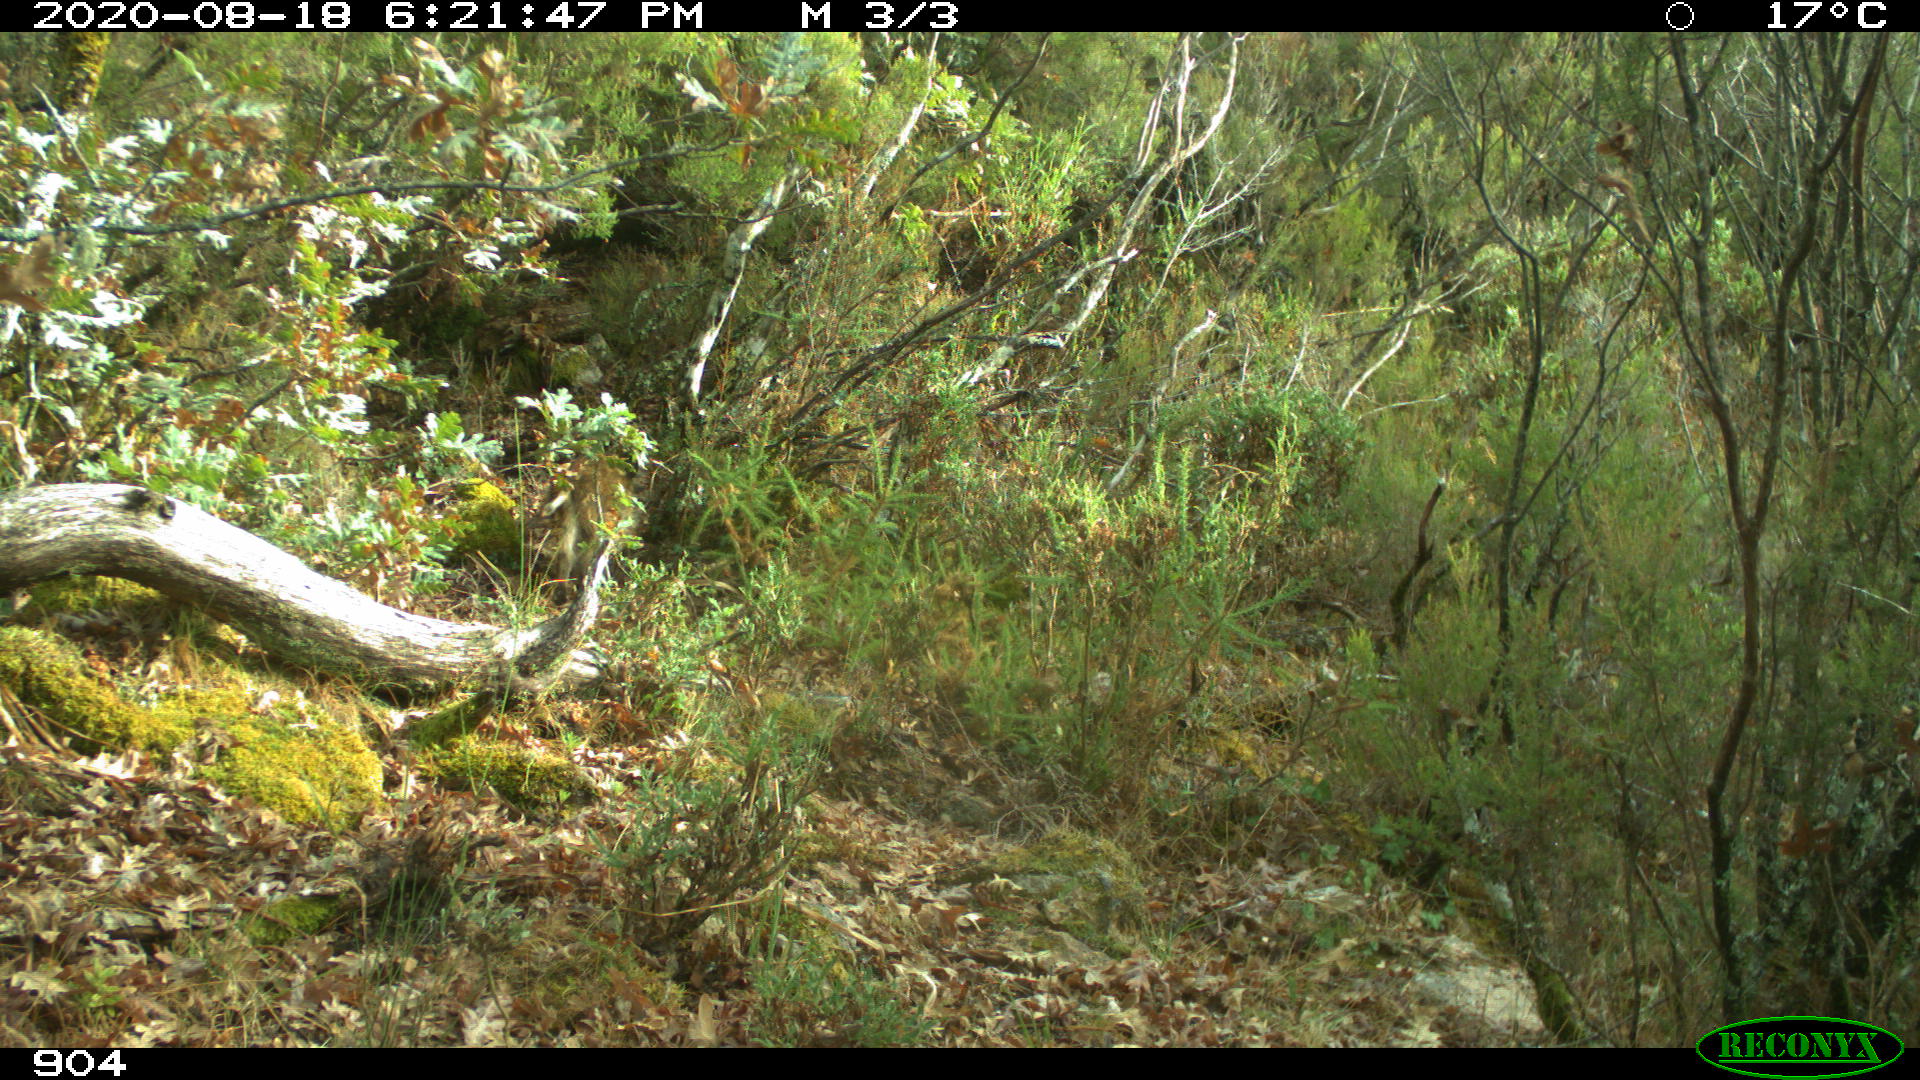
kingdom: Animalia
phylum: Chordata
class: Mammalia
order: Artiodactyla
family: Suidae
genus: Sus
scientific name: Sus scrofa
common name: Wild boar
